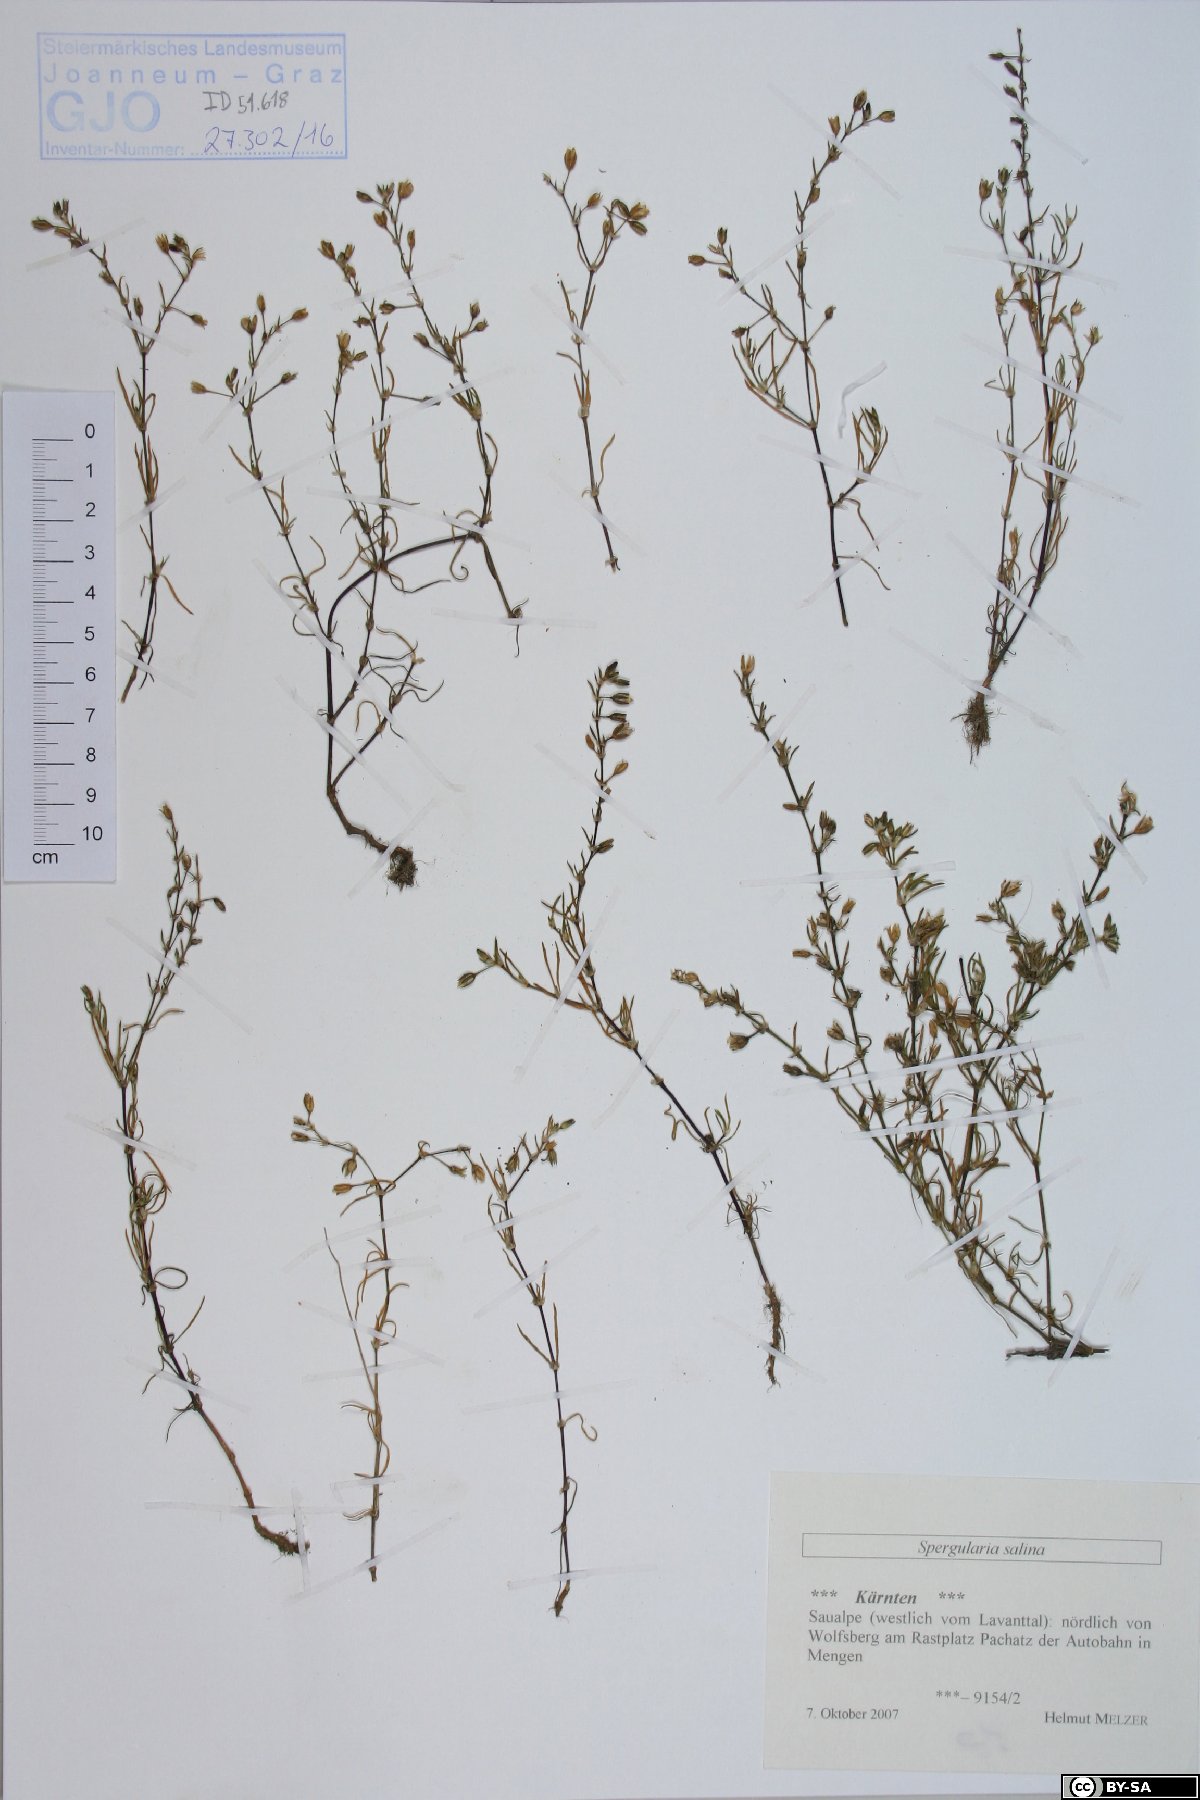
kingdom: Plantae
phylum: Tracheophyta
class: Magnoliopsida
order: Caryophyllales
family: Caryophyllaceae
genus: Spergularia
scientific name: Spergularia marina
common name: Lesser sea-spurrey
